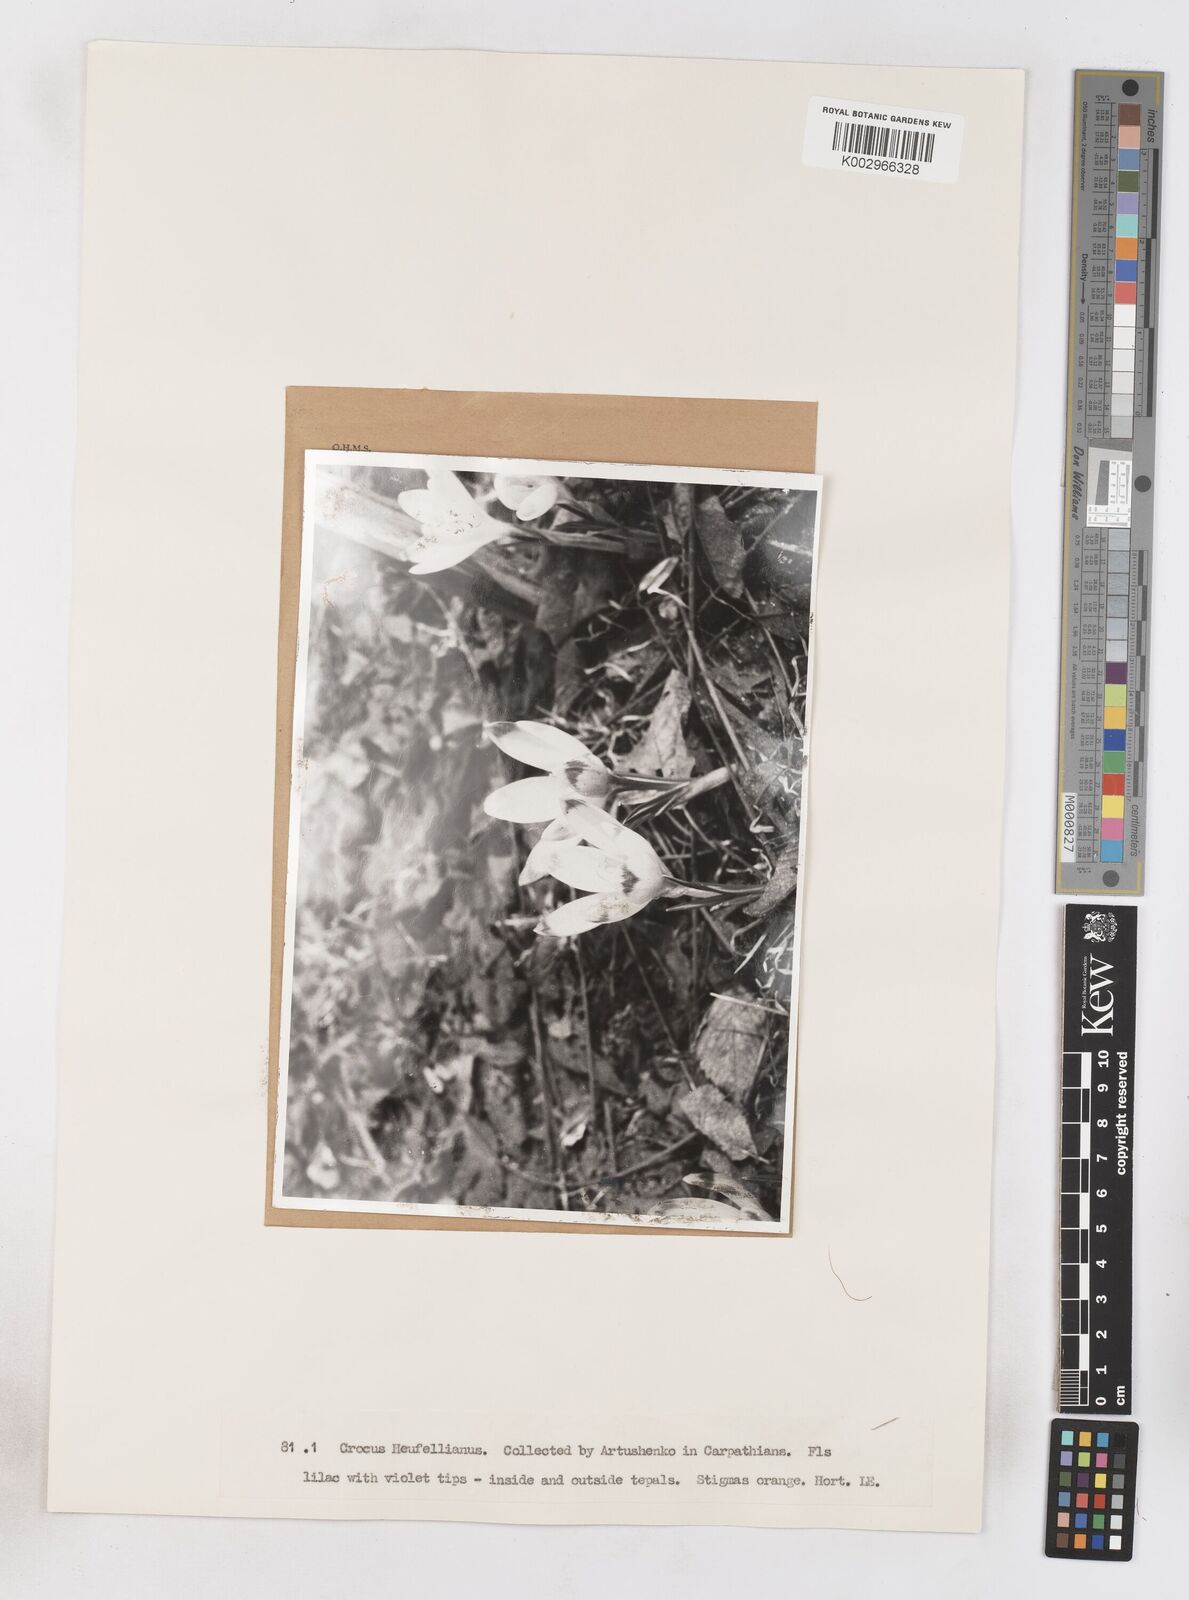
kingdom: Plantae
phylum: Tracheophyta
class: Liliopsida
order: Asparagales
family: Iridaceae
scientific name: Iridaceae
